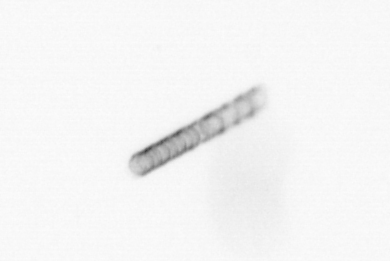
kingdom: Chromista
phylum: Ochrophyta
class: Bacillariophyceae
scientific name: Bacillariophyceae
